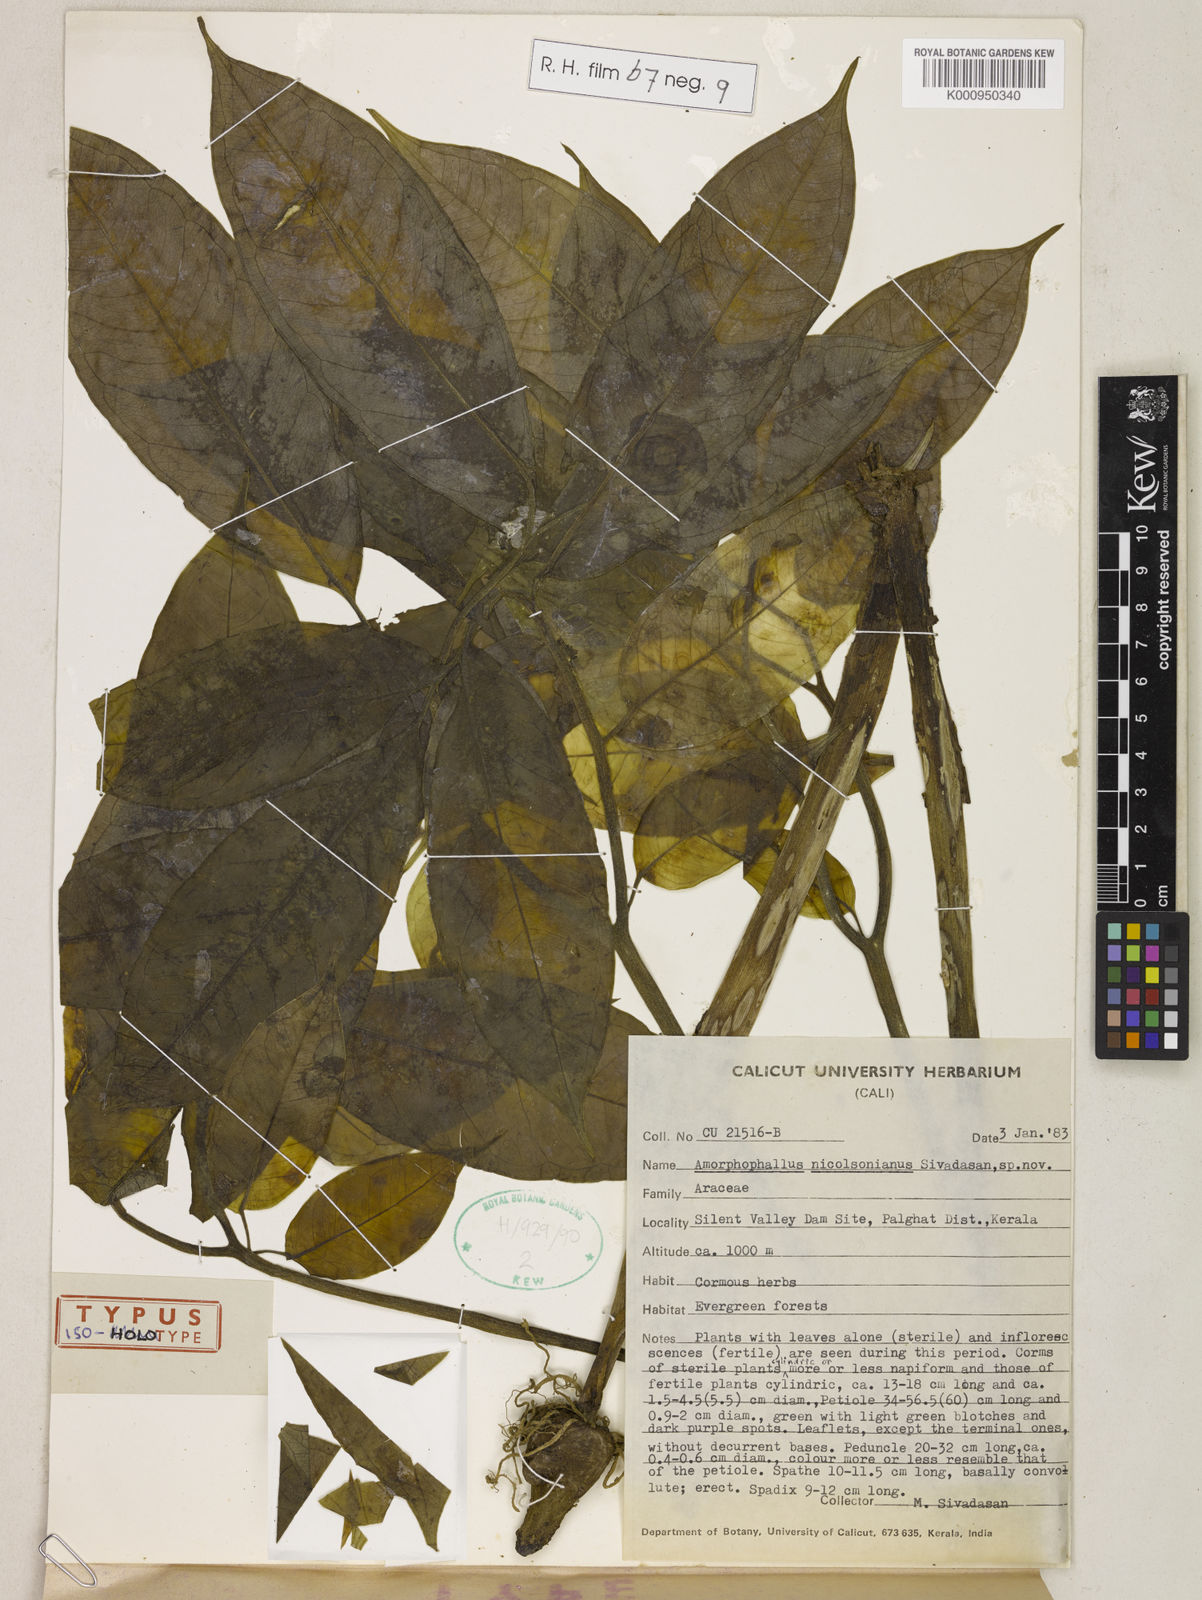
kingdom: Plantae
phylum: Tracheophyta
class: Liliopsida
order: Alismatales
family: Araceae
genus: Amorphophallus
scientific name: Amorphophallus nicolsonianus
